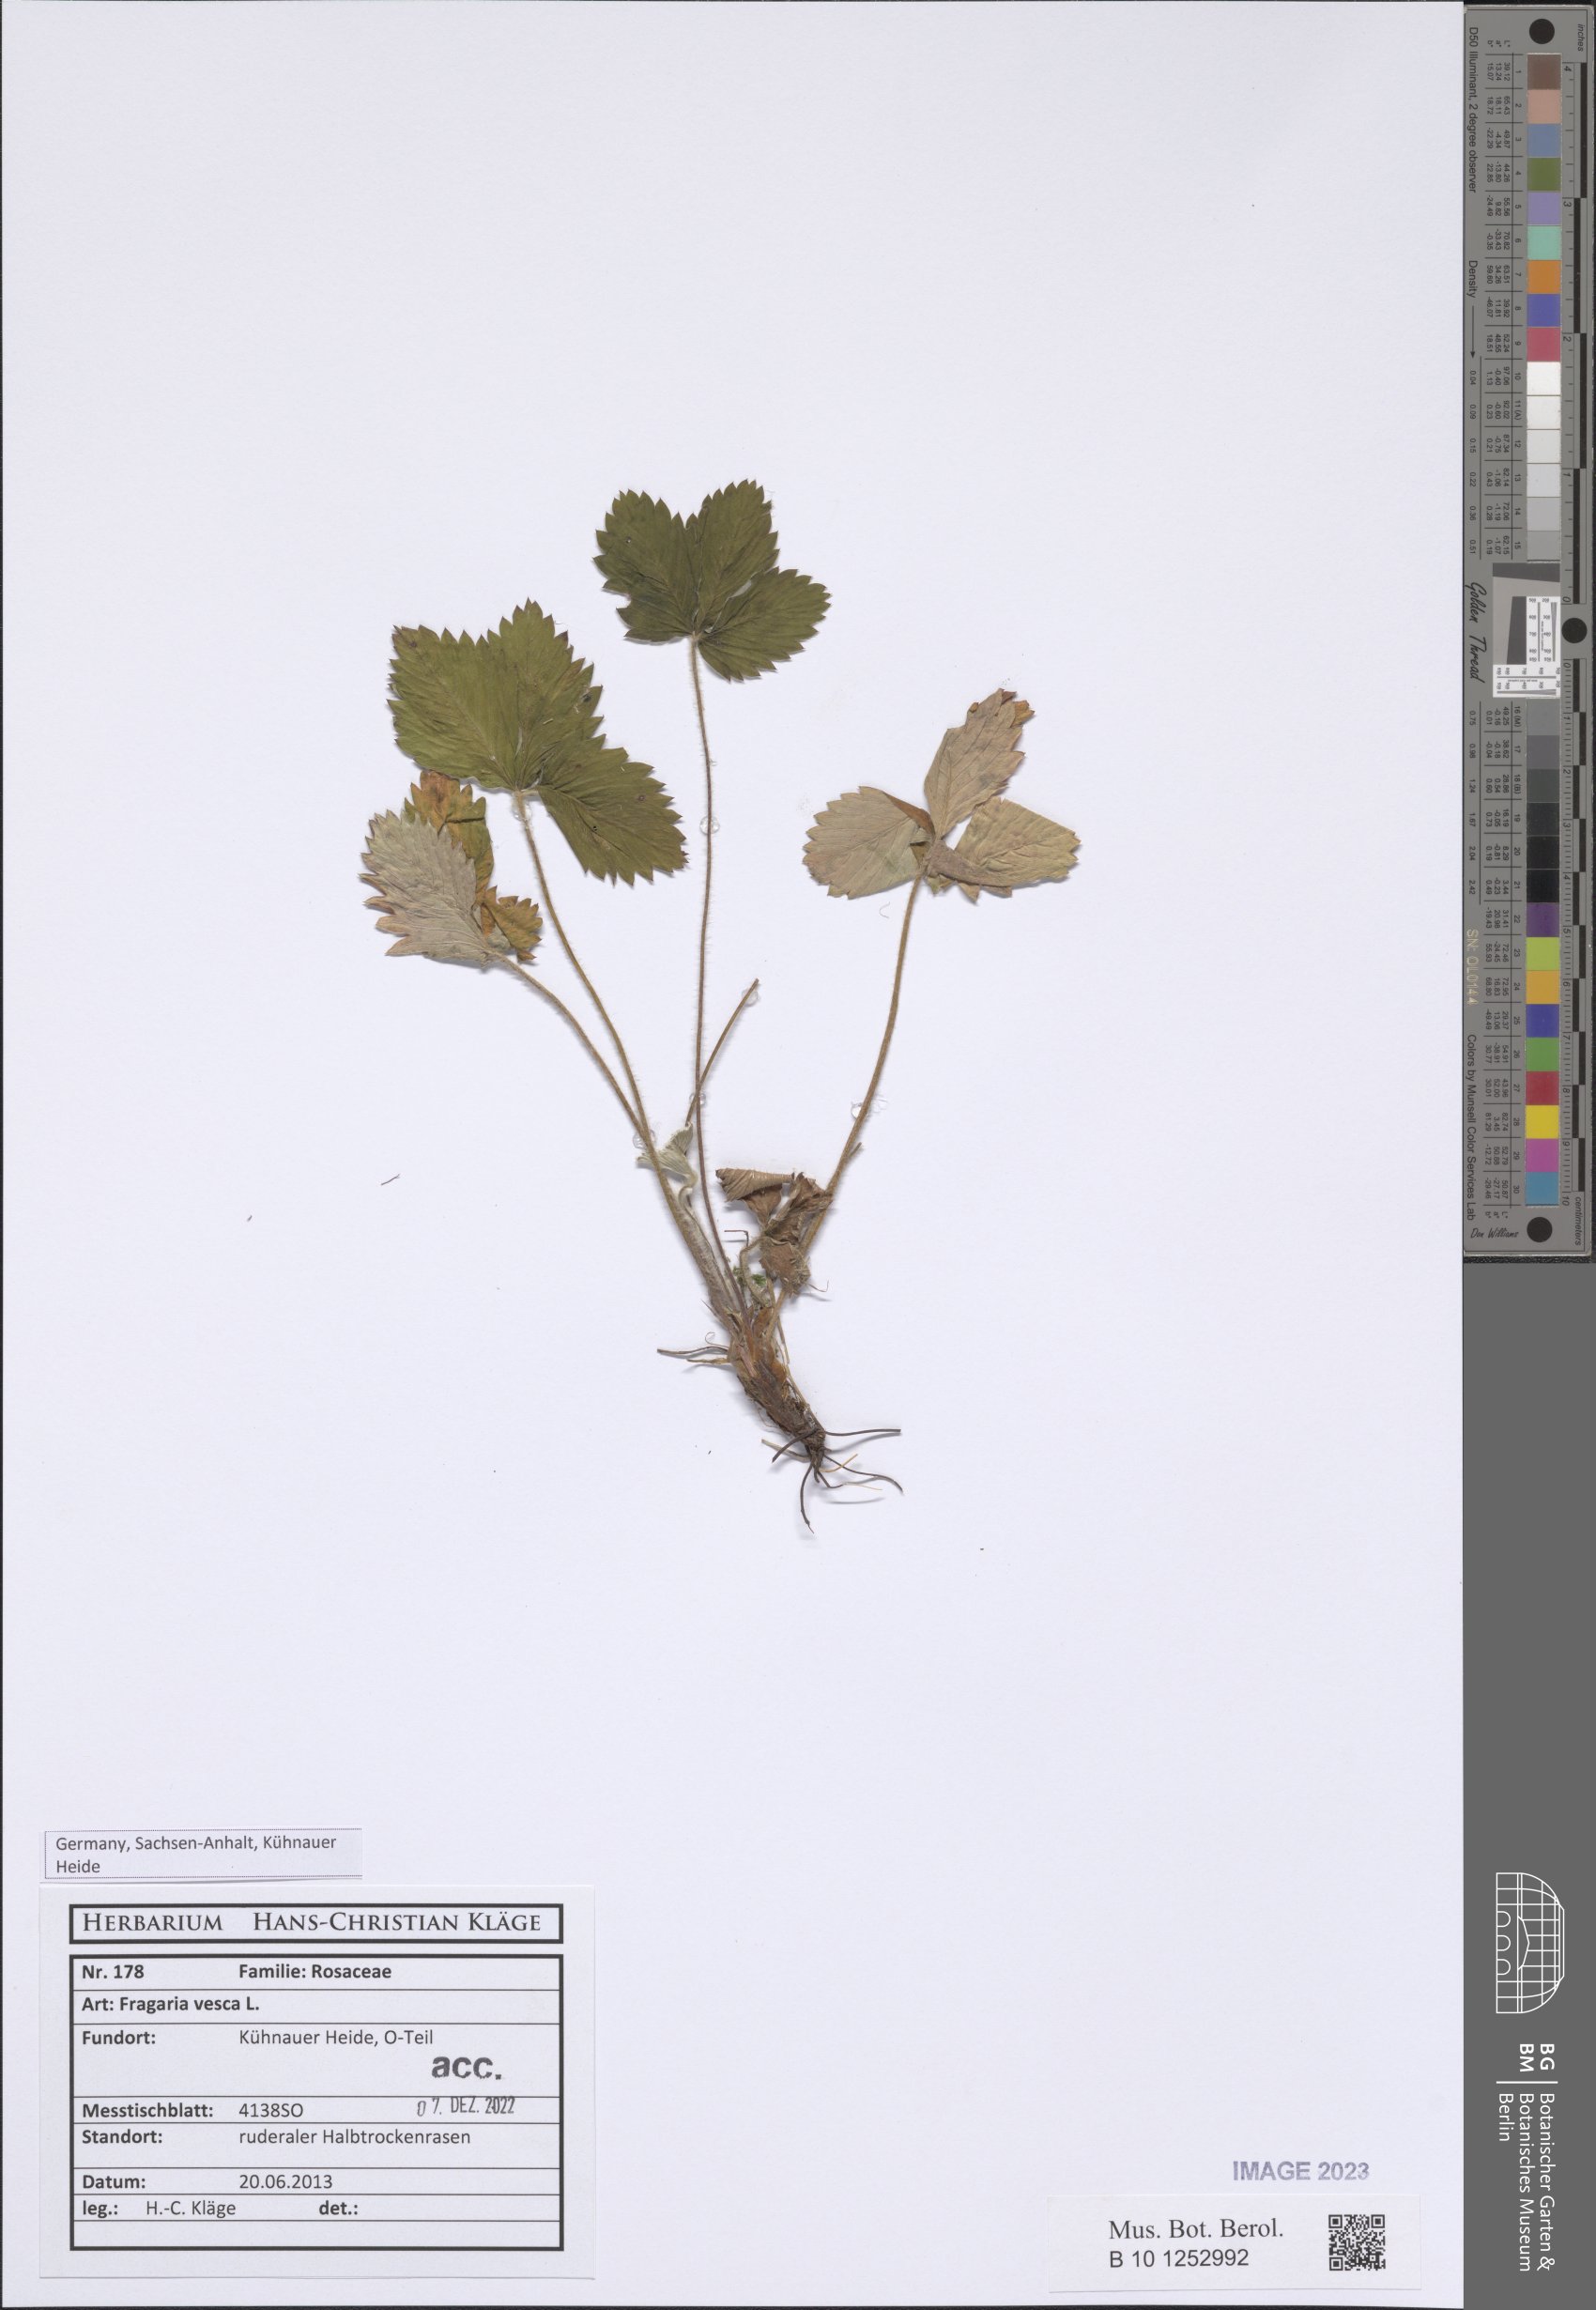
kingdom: Plantae
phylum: Tracheophyta
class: Magnoliopsida
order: Rosales
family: Rosaceae
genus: Fragaria
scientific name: Fragaria vesca
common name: Wild strawberry
